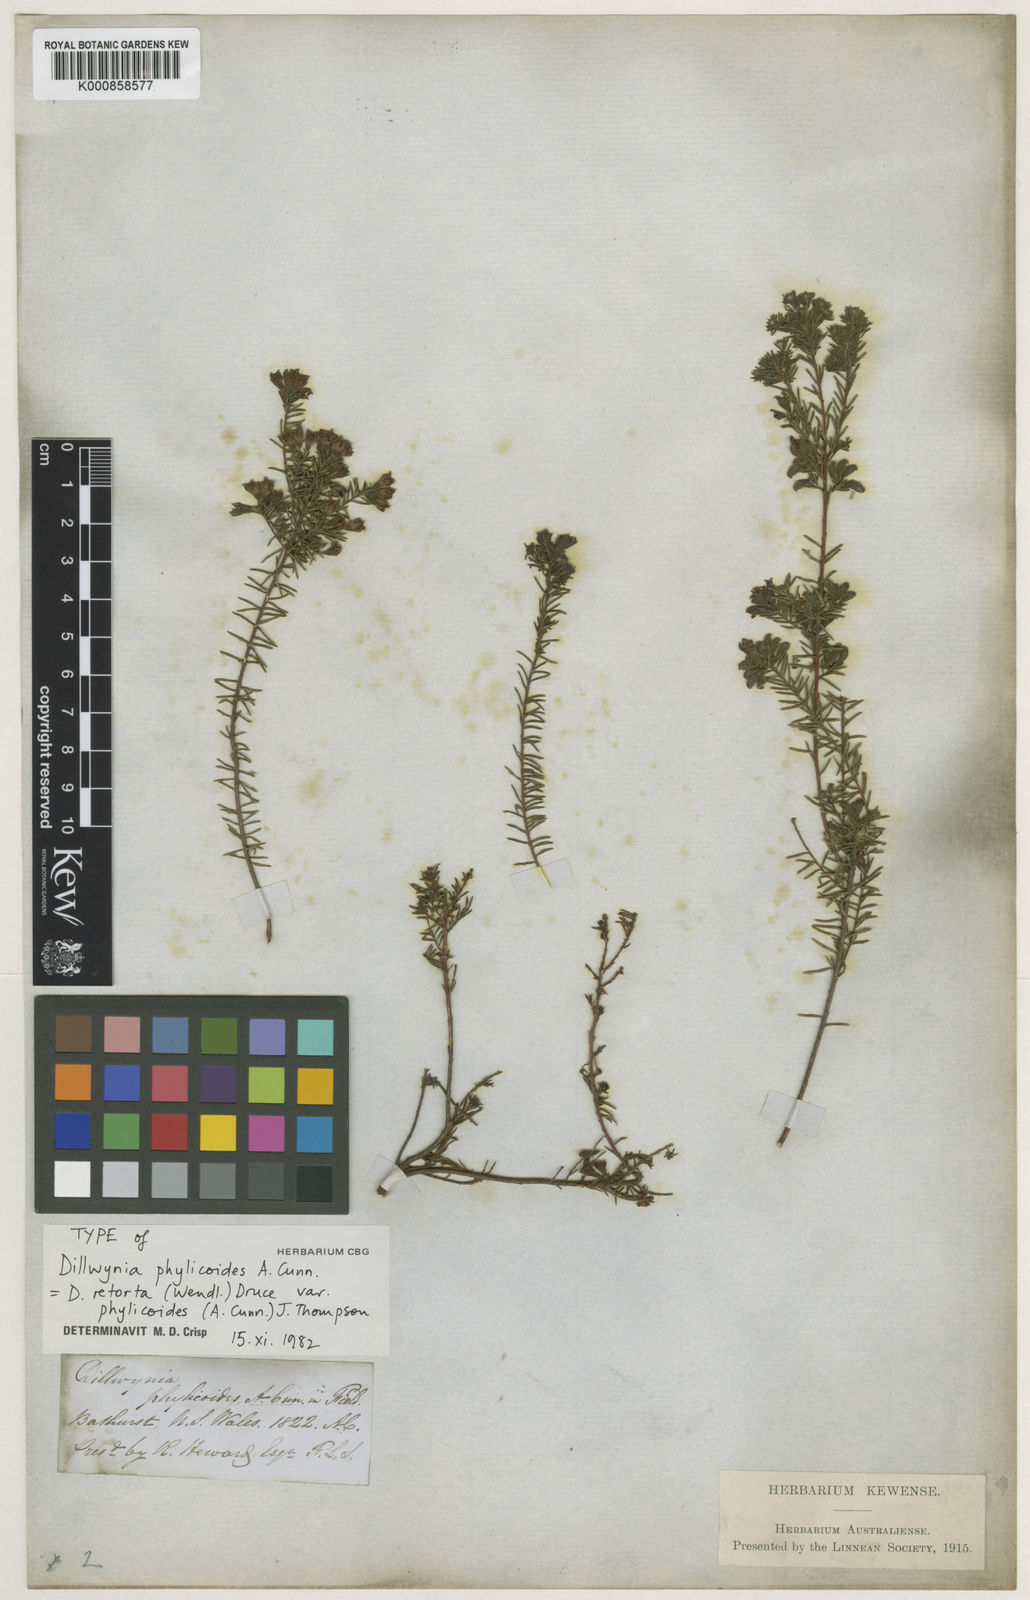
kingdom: Plantae
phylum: Tracheophyta
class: Magnoliopsida
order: Fabales
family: Fabaceae
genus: Dillwynia
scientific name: Dillwynia phylicoides
